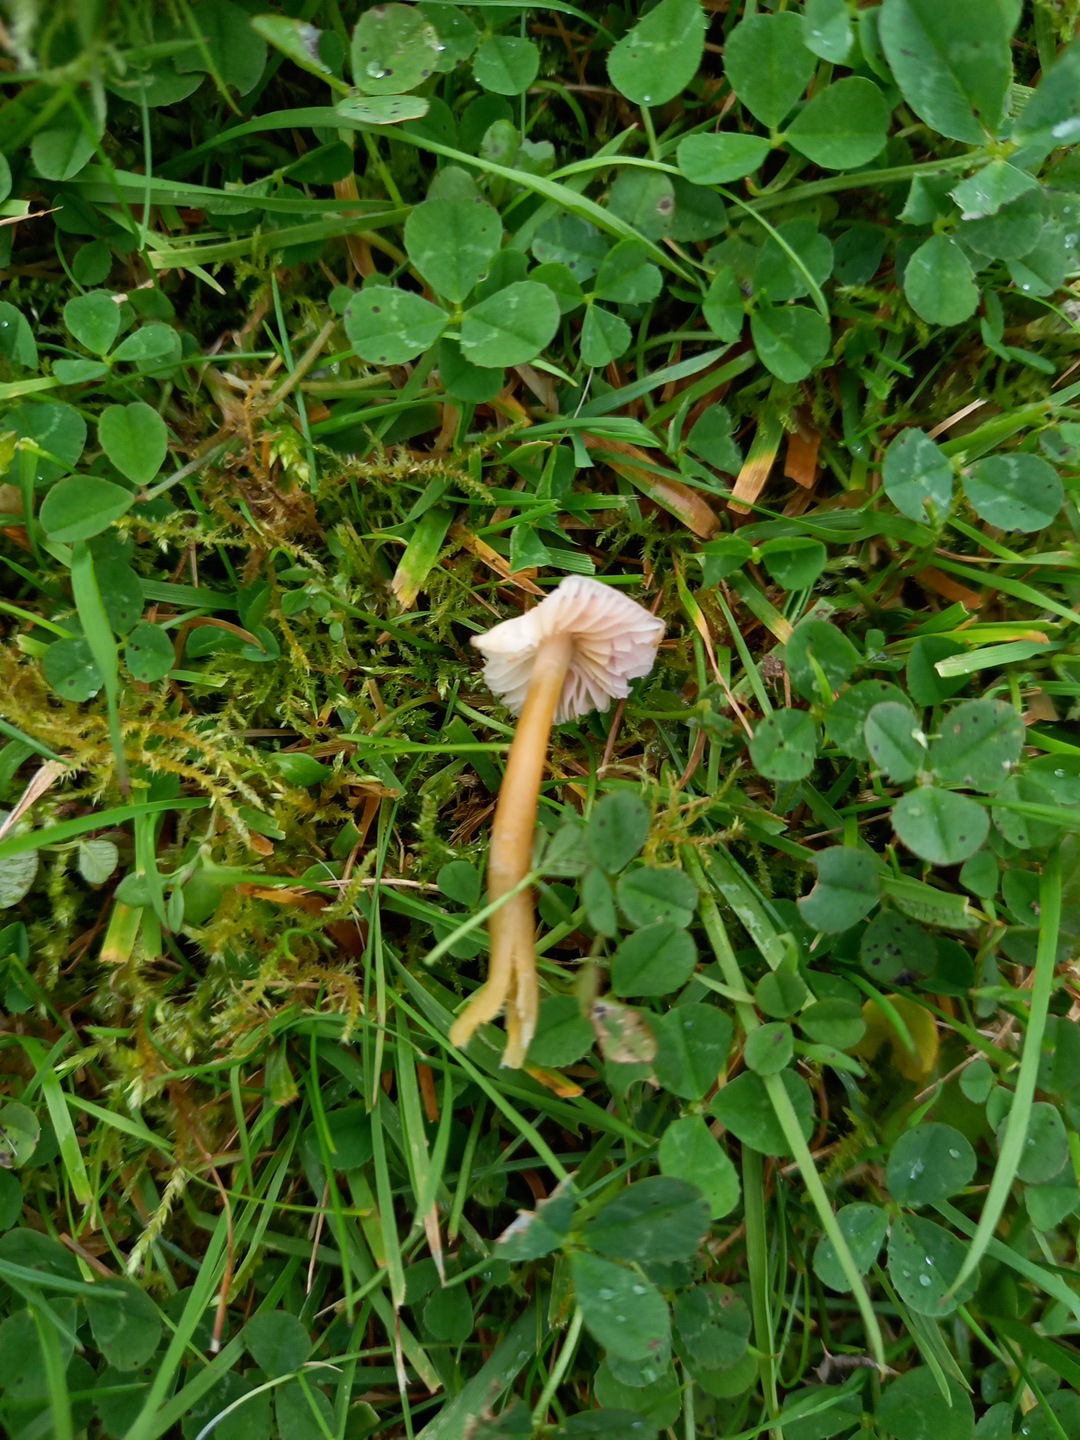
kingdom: Fungi
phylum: Basidiomycota
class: Agaricomycetes
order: Agaricales
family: Hygrophoraceae
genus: Gliophorus
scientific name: Gliophorus psittacinus
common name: papegøje-vokshat
